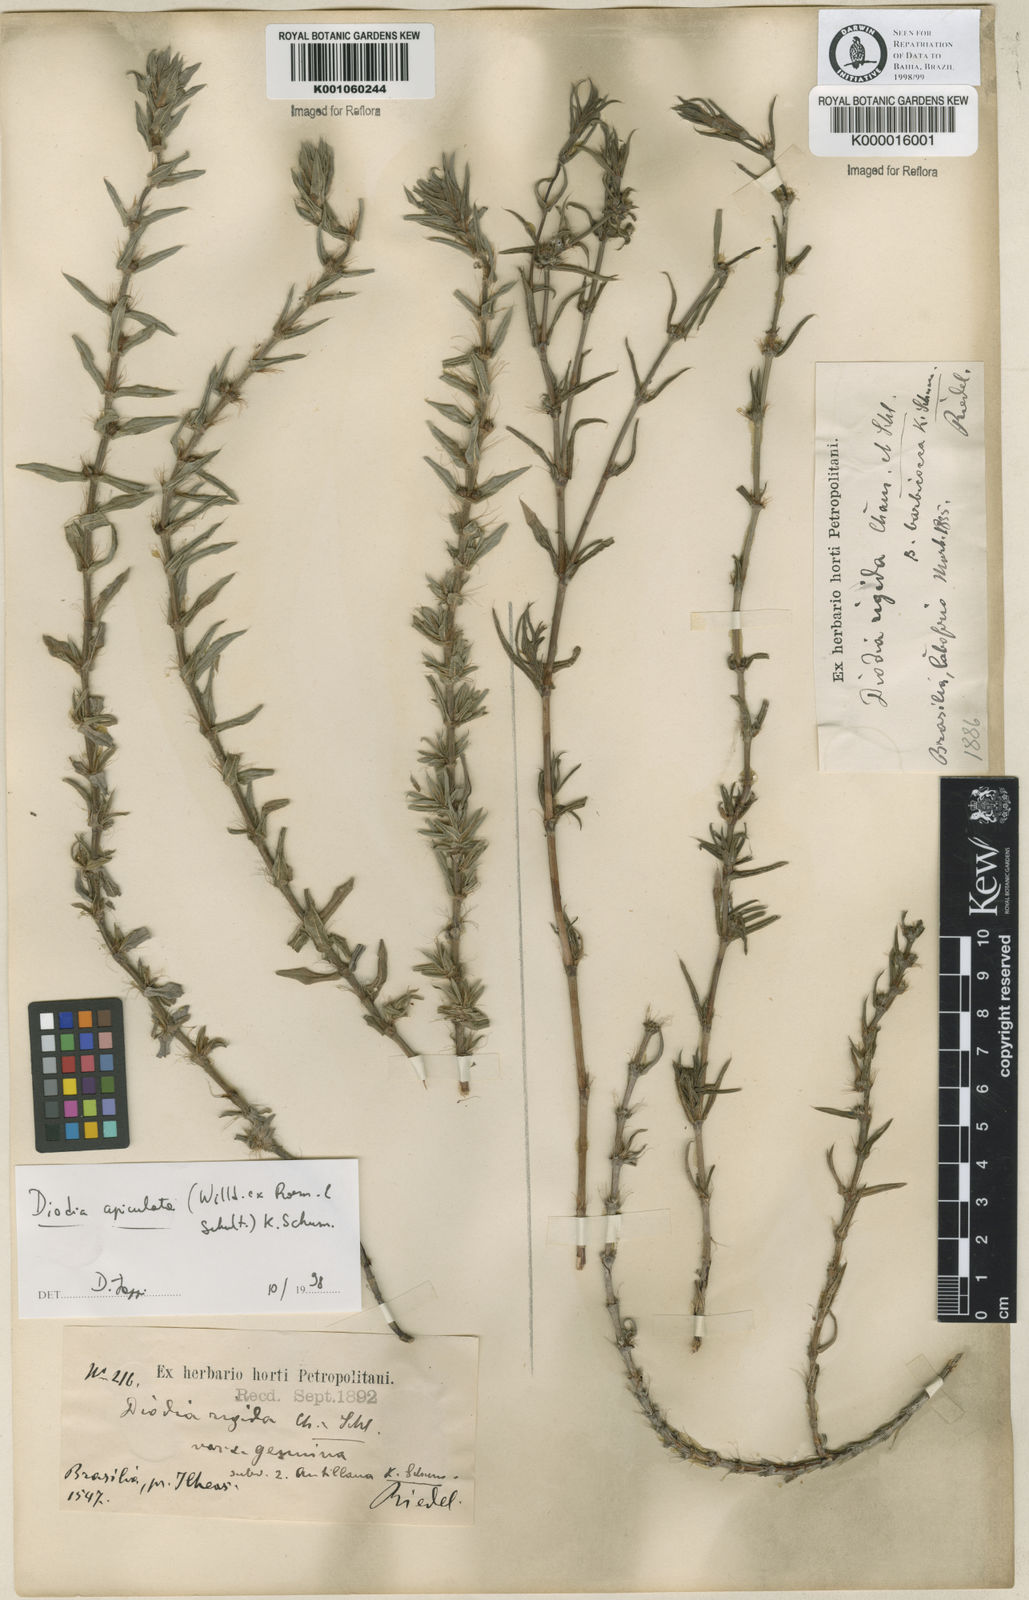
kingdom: Plantae
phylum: Tracheophyta
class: Magnoliopsida
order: Gentianales
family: Rubiaceae
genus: Hexasepalum
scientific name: Hexasepalum apiculatum
